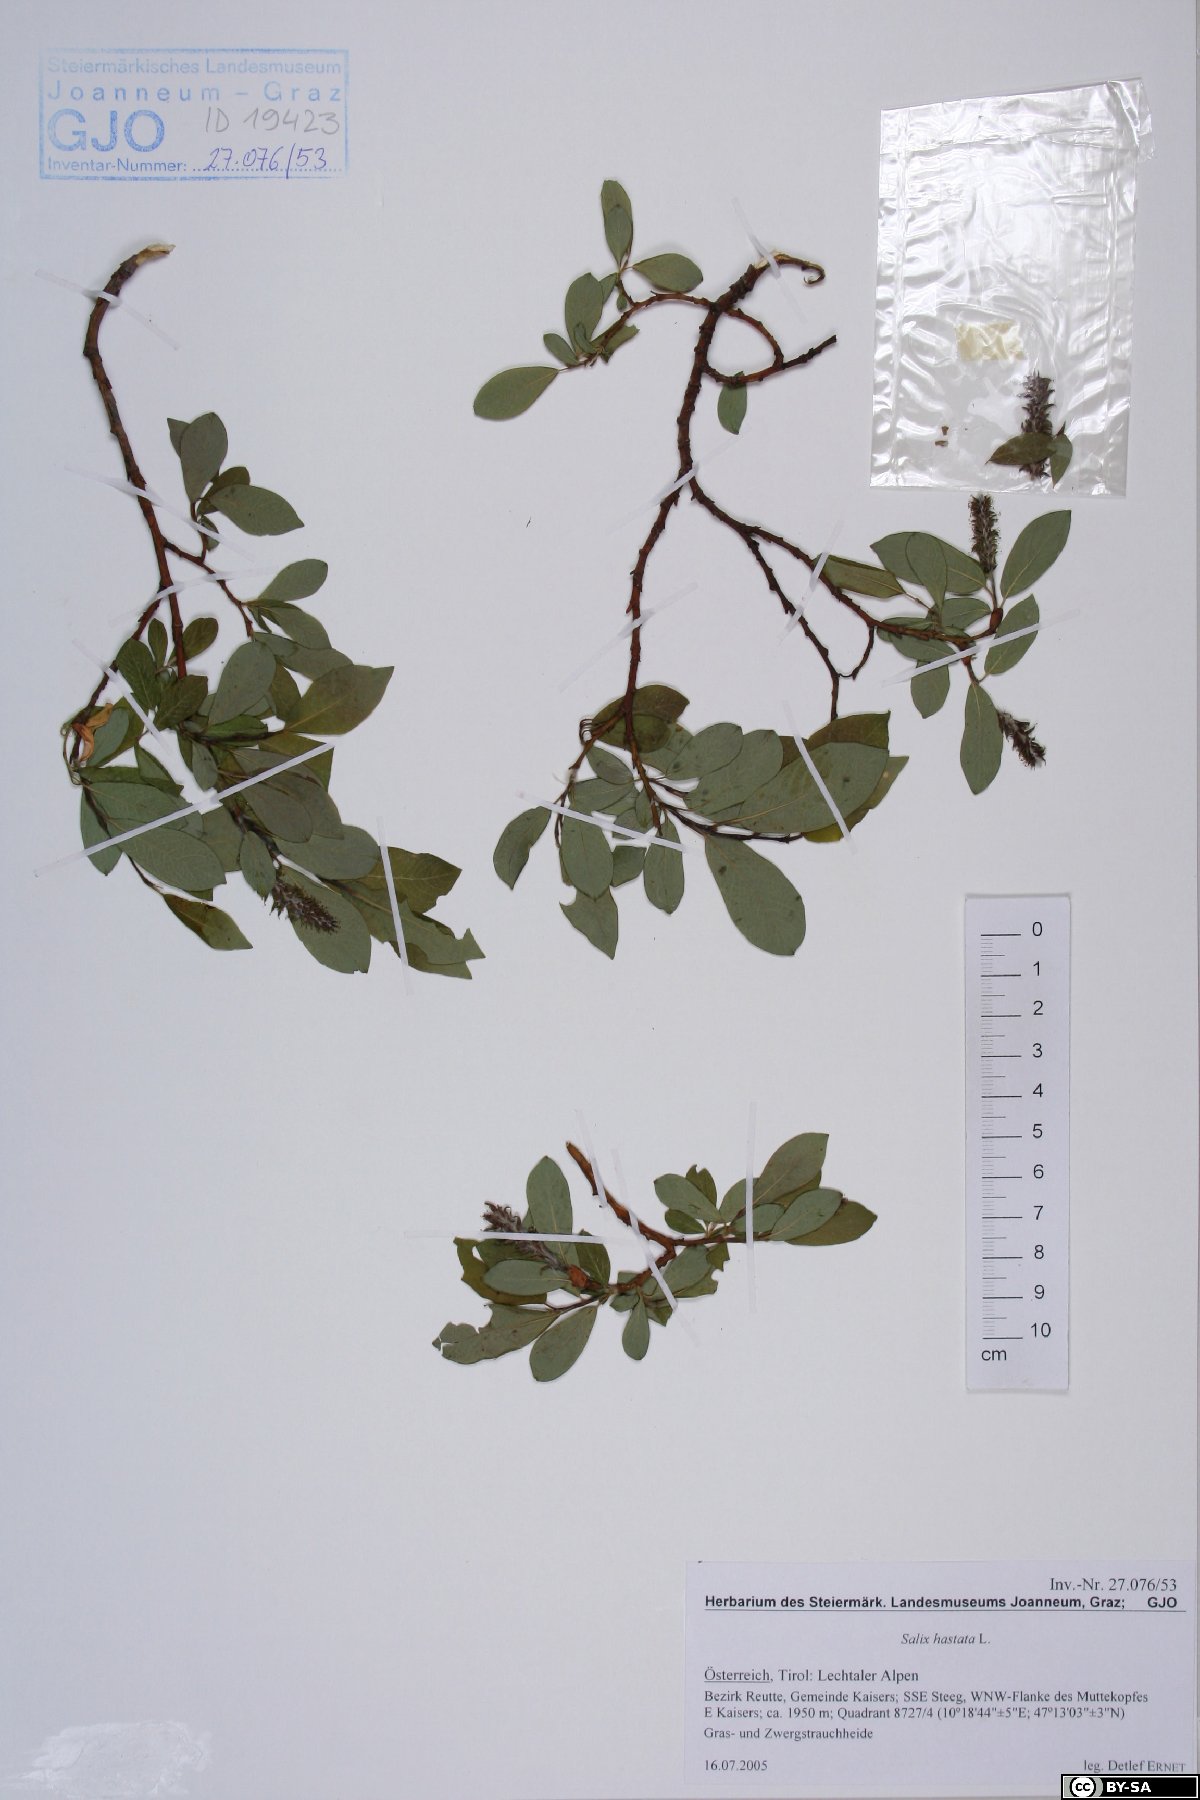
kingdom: Plantae
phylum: Tracheophyta
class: Magnoliopsida
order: Malpighiales
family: Salicaceae
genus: Salix
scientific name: Salix hastata
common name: Halberd willow
